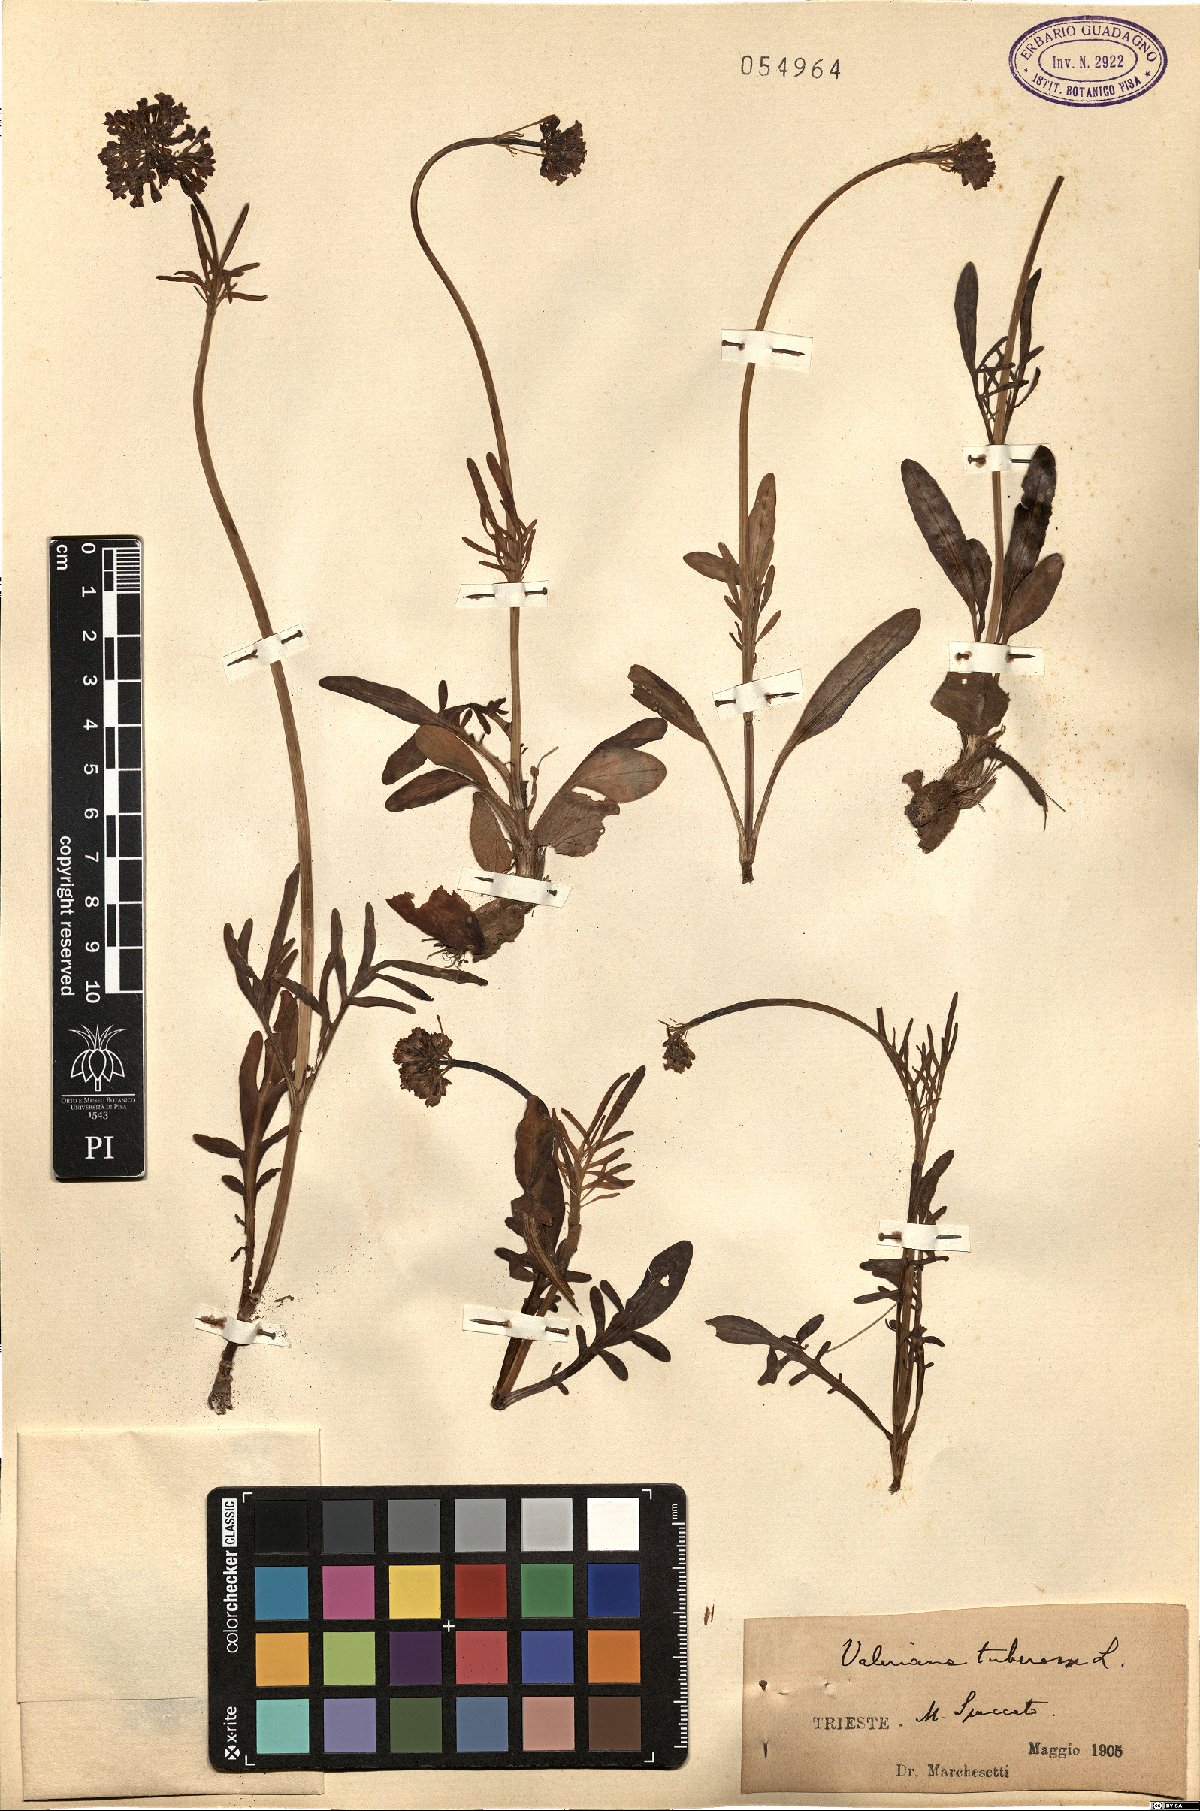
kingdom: Plantae
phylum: Tracheophyta
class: Magnoliopsida
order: Dipsacales
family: Caprifoliaceae
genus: Valeriana
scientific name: Valeriana tuberosa
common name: Tuberous valerian
